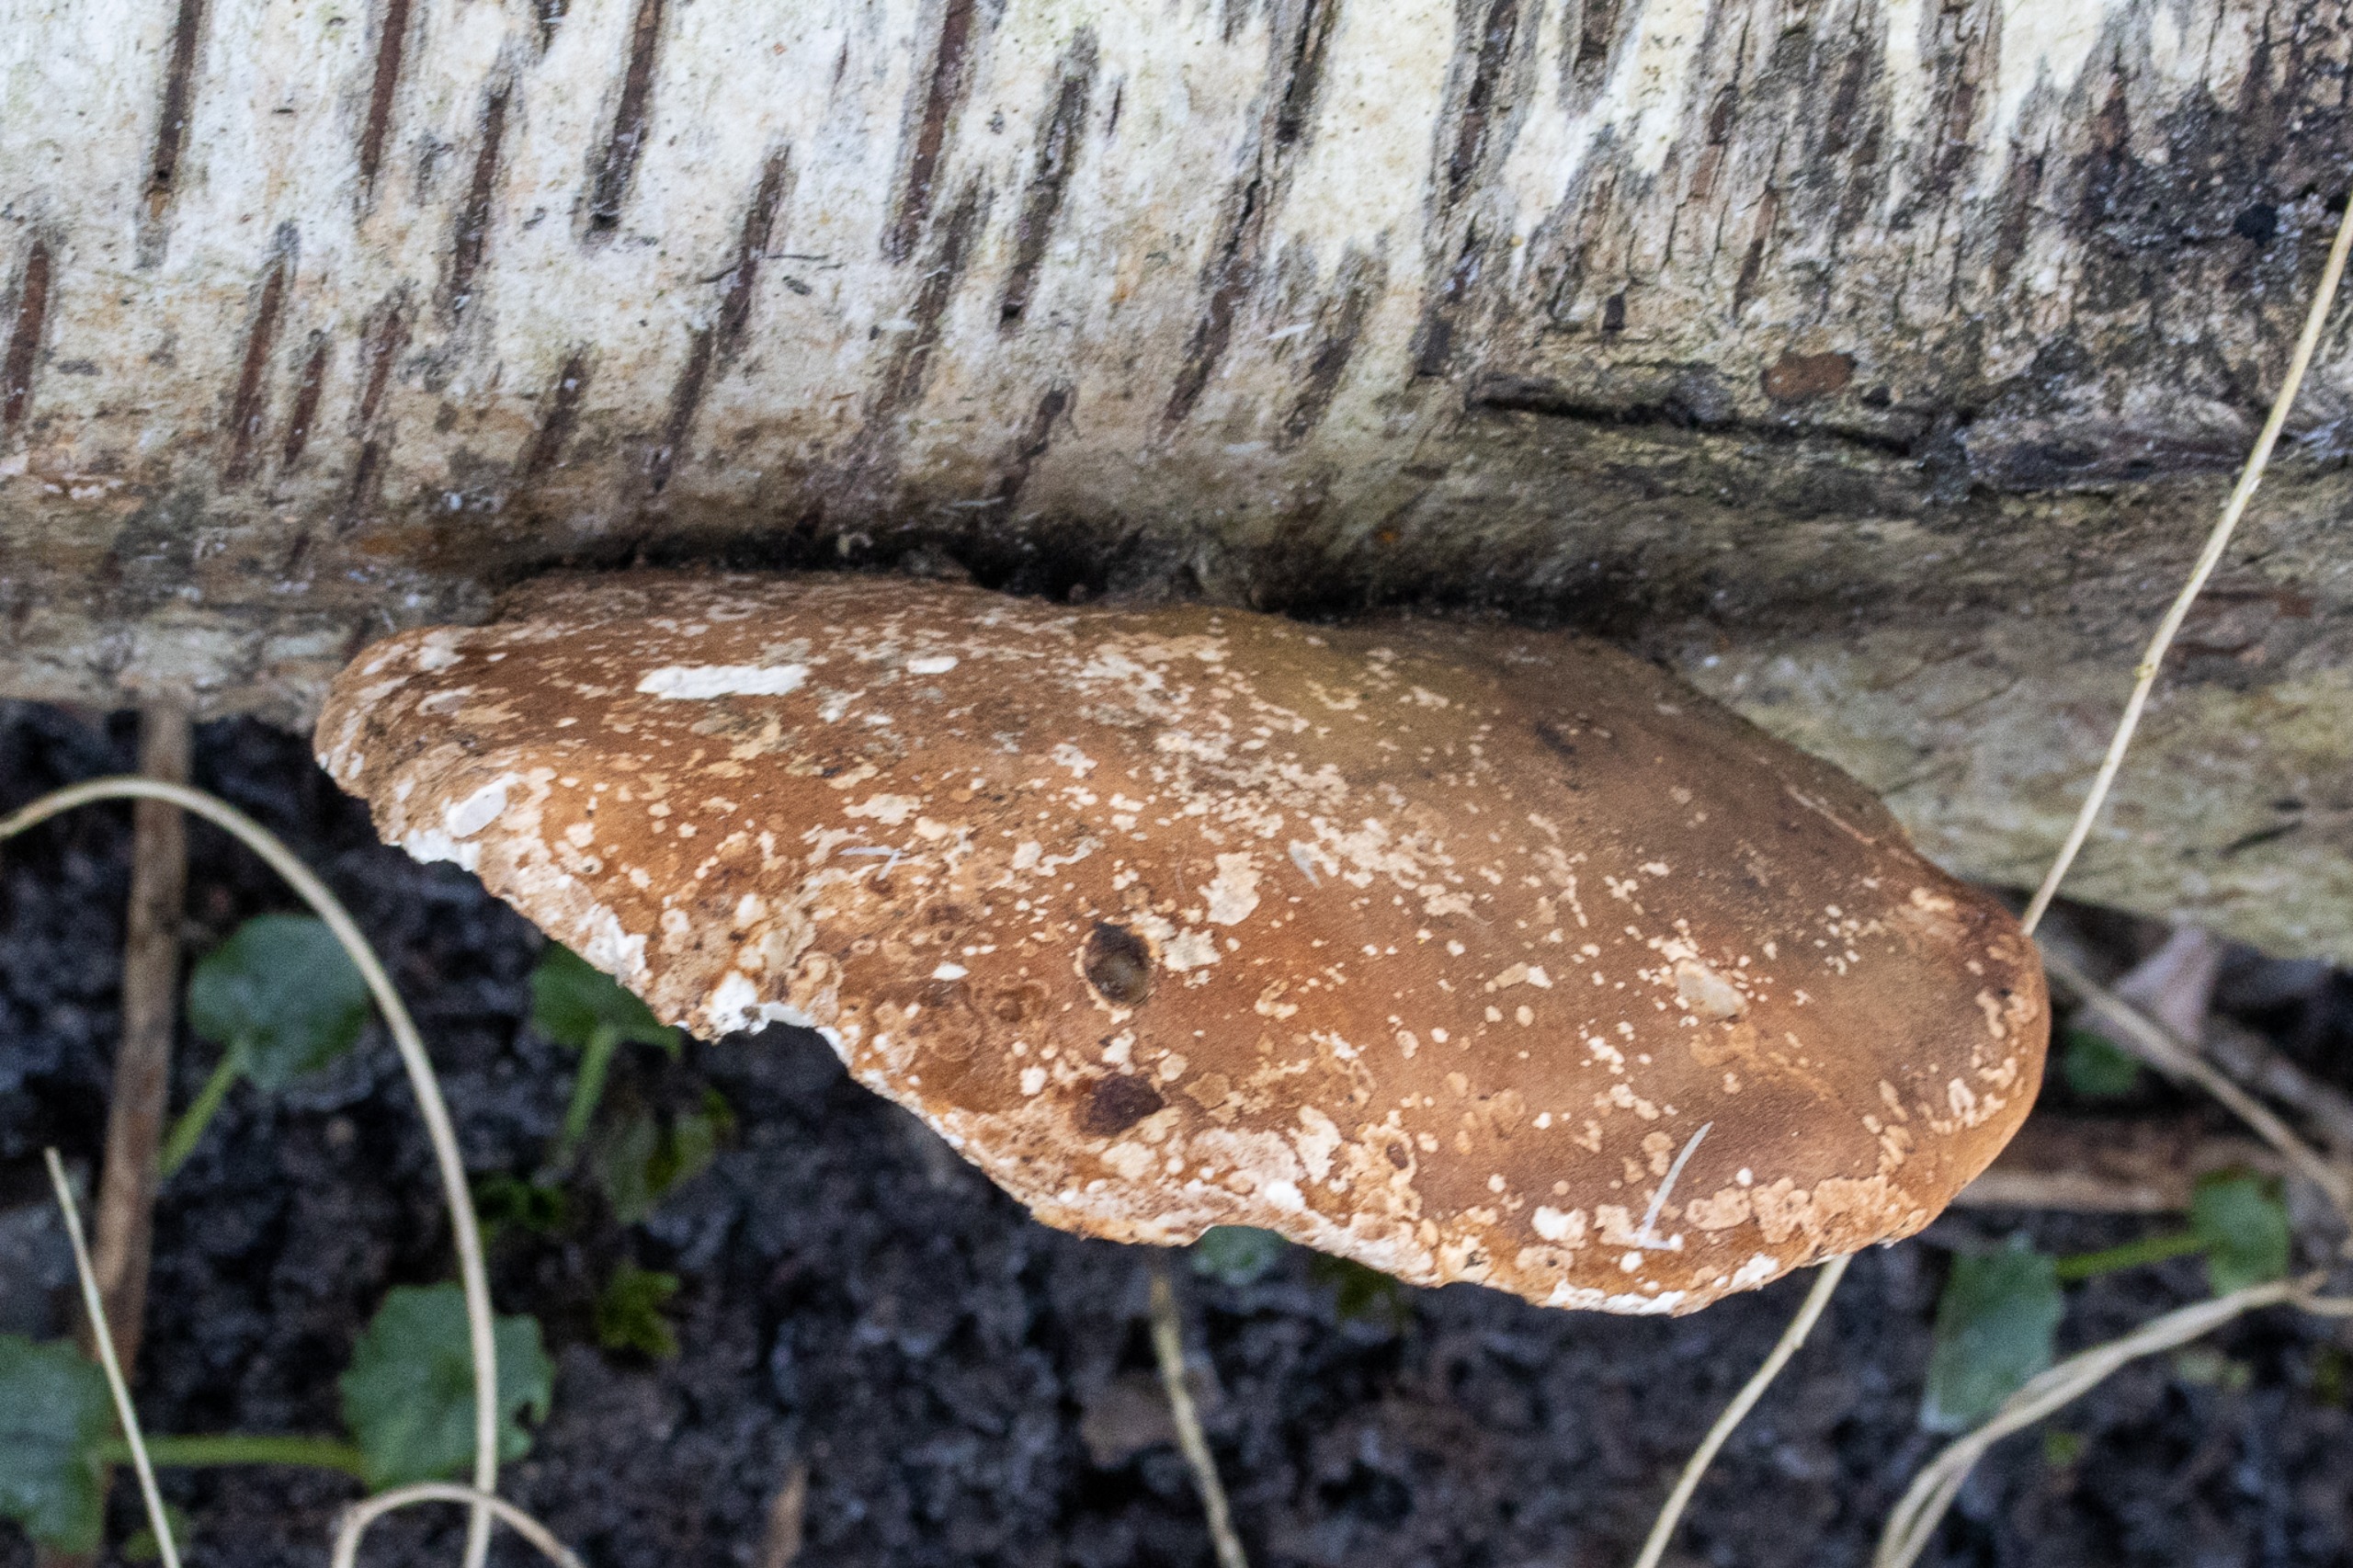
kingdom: Fungi
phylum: Basidiomycota
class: Agaricomycetes
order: Polyporales
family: Fomitopsidaceae
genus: Fomitopsis
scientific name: Fomitopsis betulina
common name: Birkeporesvamp
